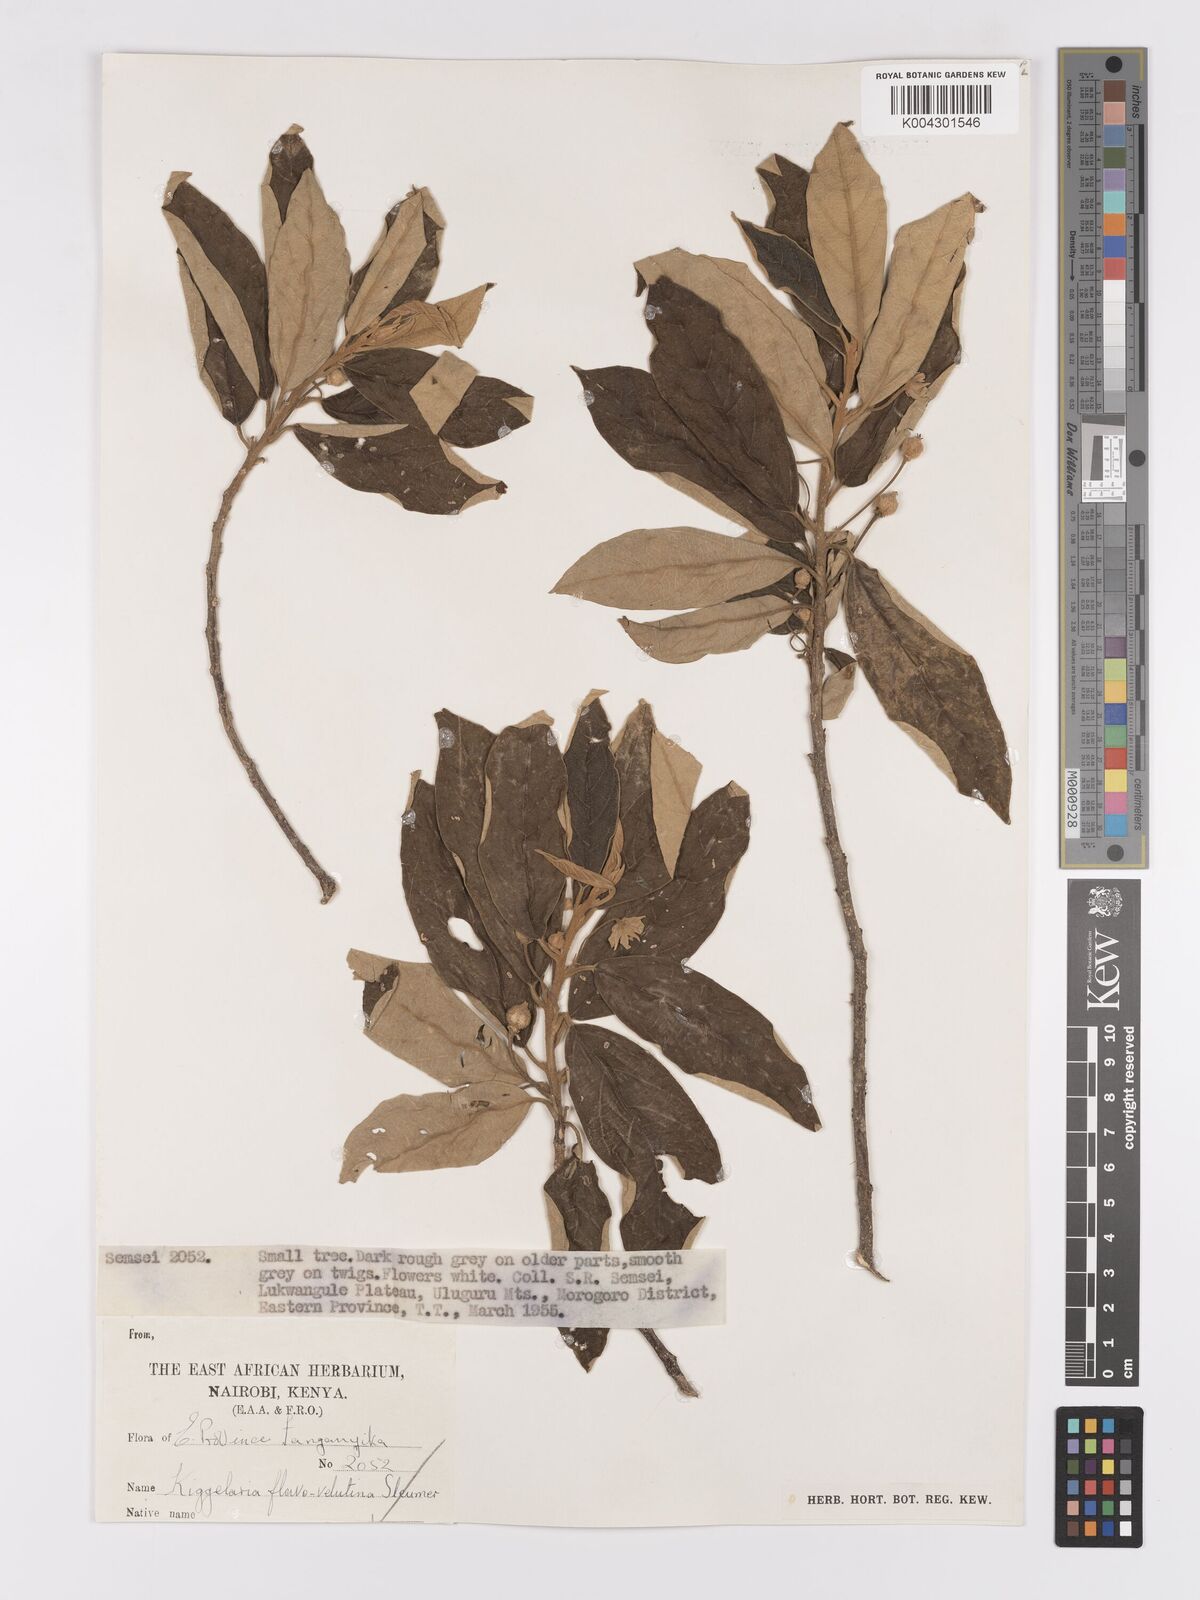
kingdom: Plantae
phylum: Tracheophyta
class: Magnoliopsida
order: Malpighiales
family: Achariaceae
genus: Kiggelaria
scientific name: Kiggelaria africana
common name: Wild peach
